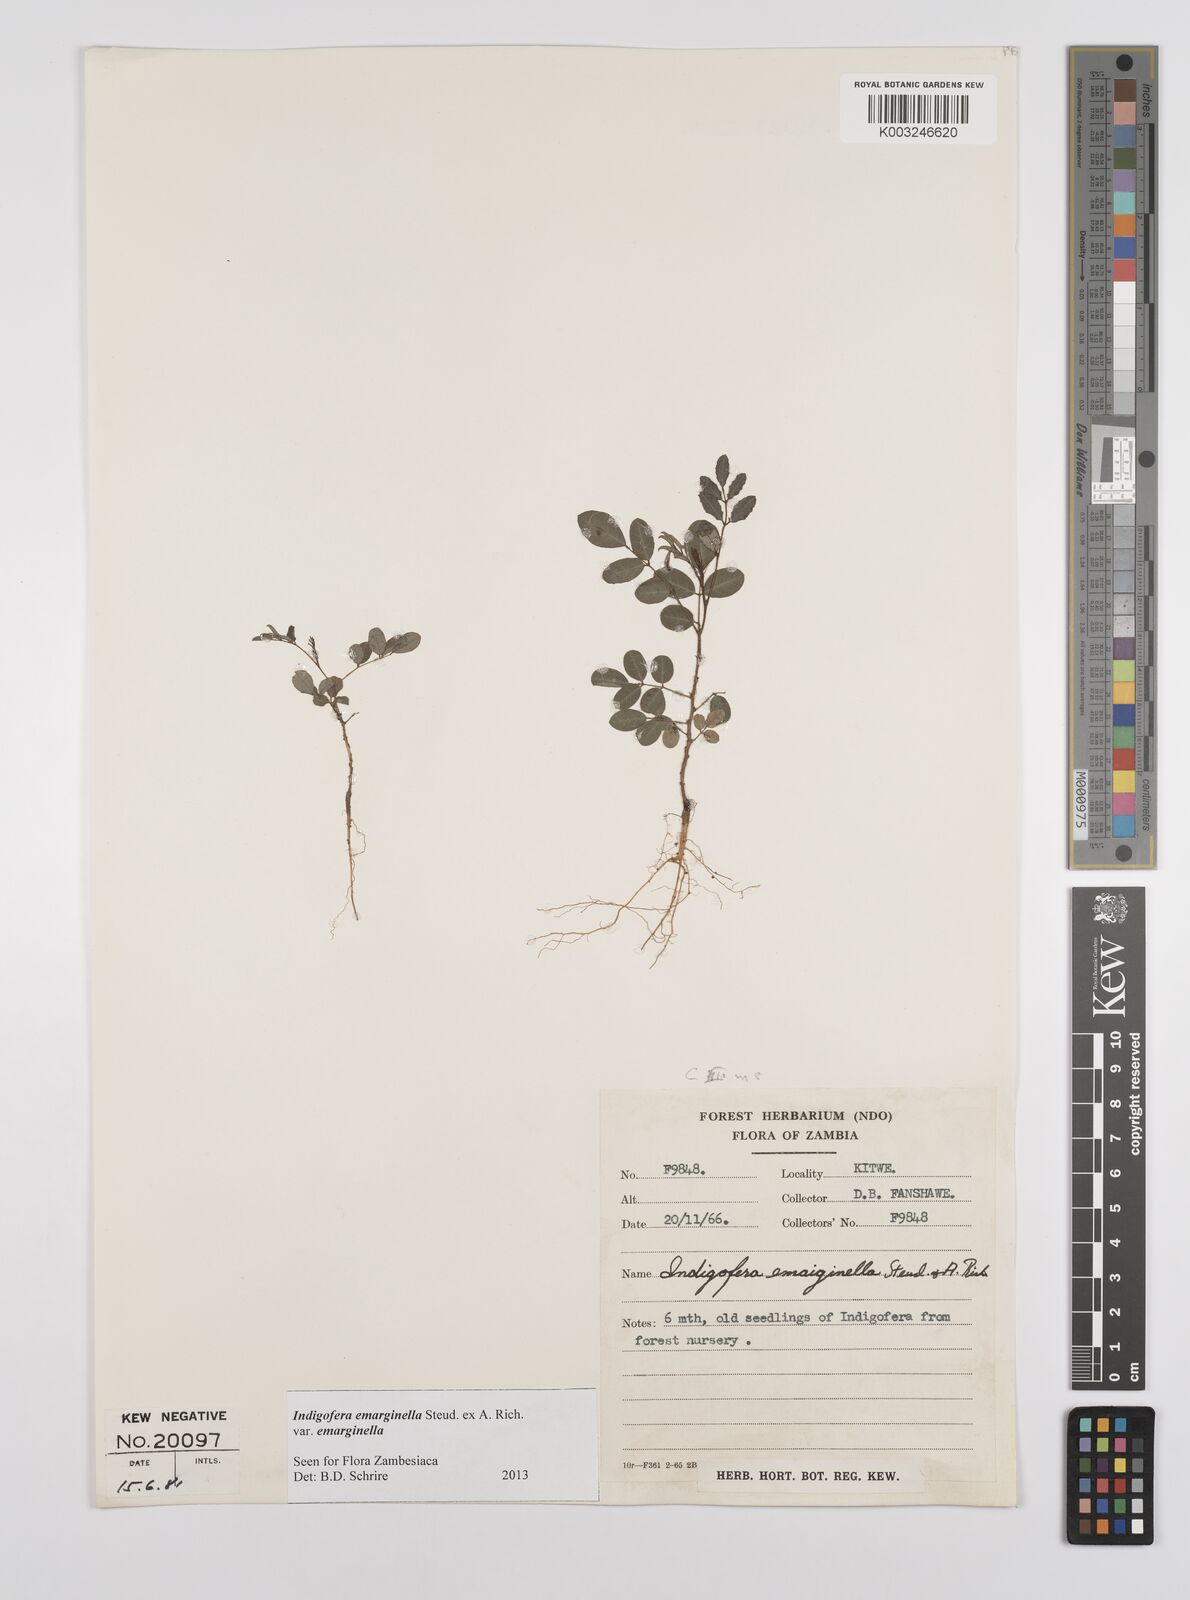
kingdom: Plantae
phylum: Tracheophyta
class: Magnoliopsida
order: Fabales
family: Fabaceae
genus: Indigofera
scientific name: Indigofera emarginella
